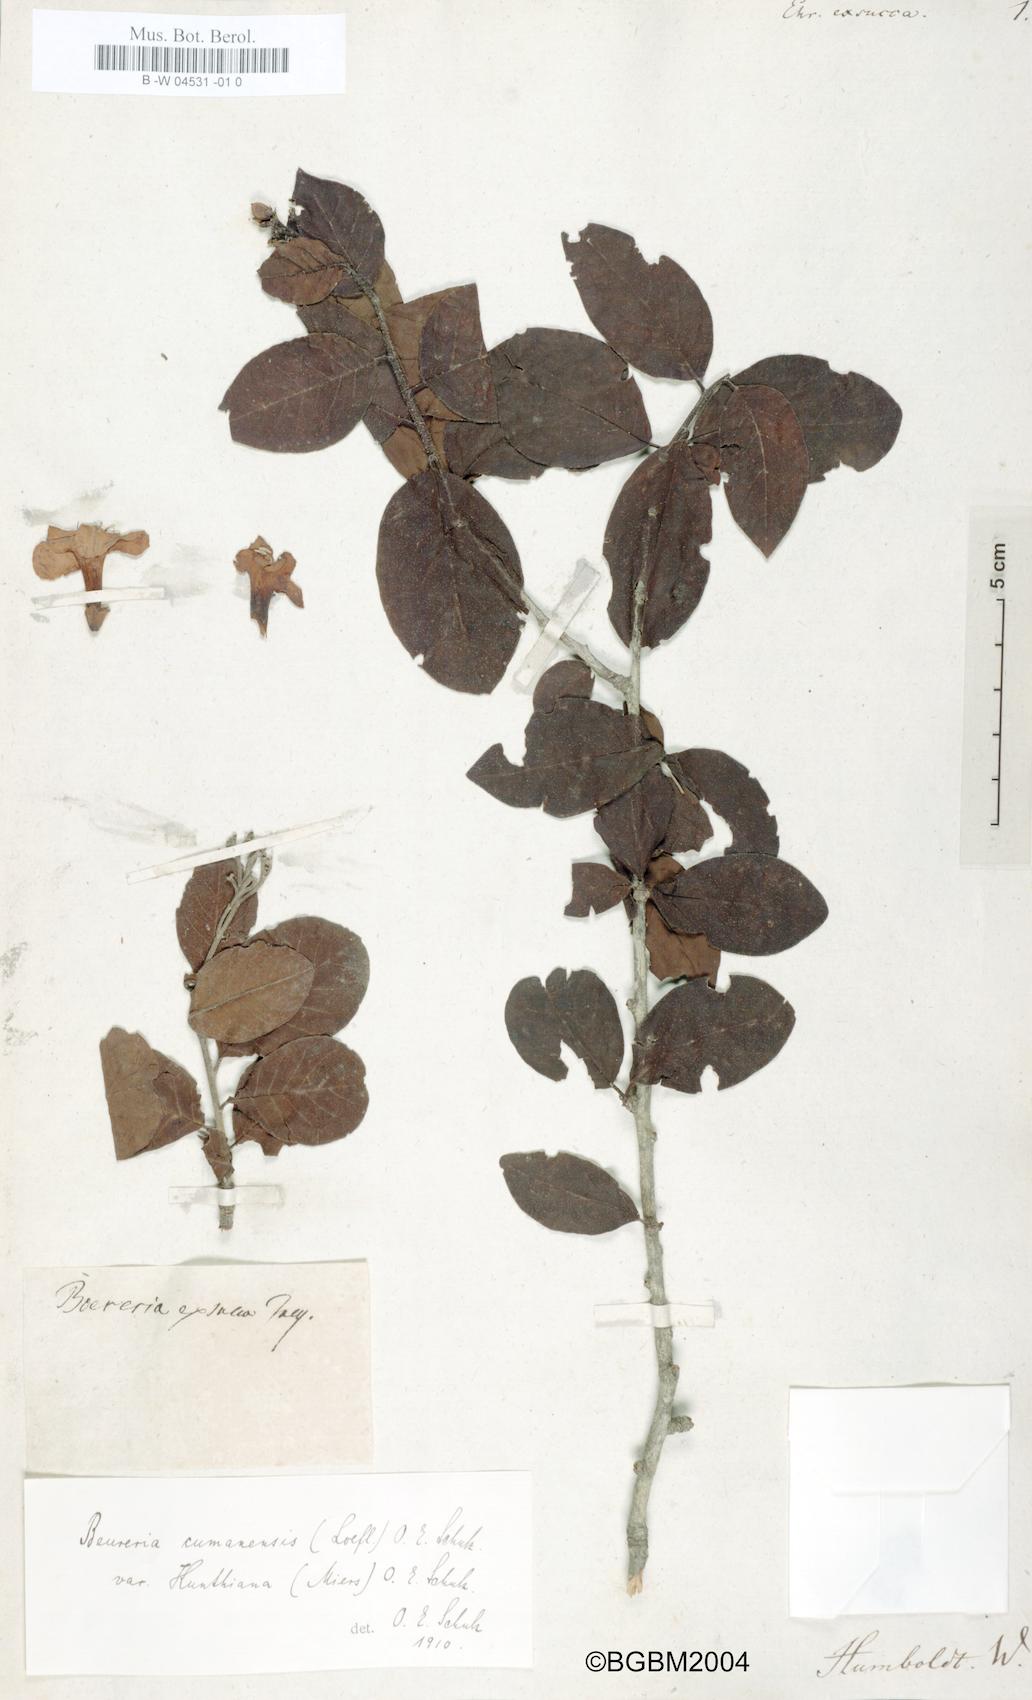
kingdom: Plantae
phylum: Tracheophyta
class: Magnoliopsida
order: Boraginales
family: Ehretiaceae
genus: Bourreria
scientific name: Bourreria exsucca
